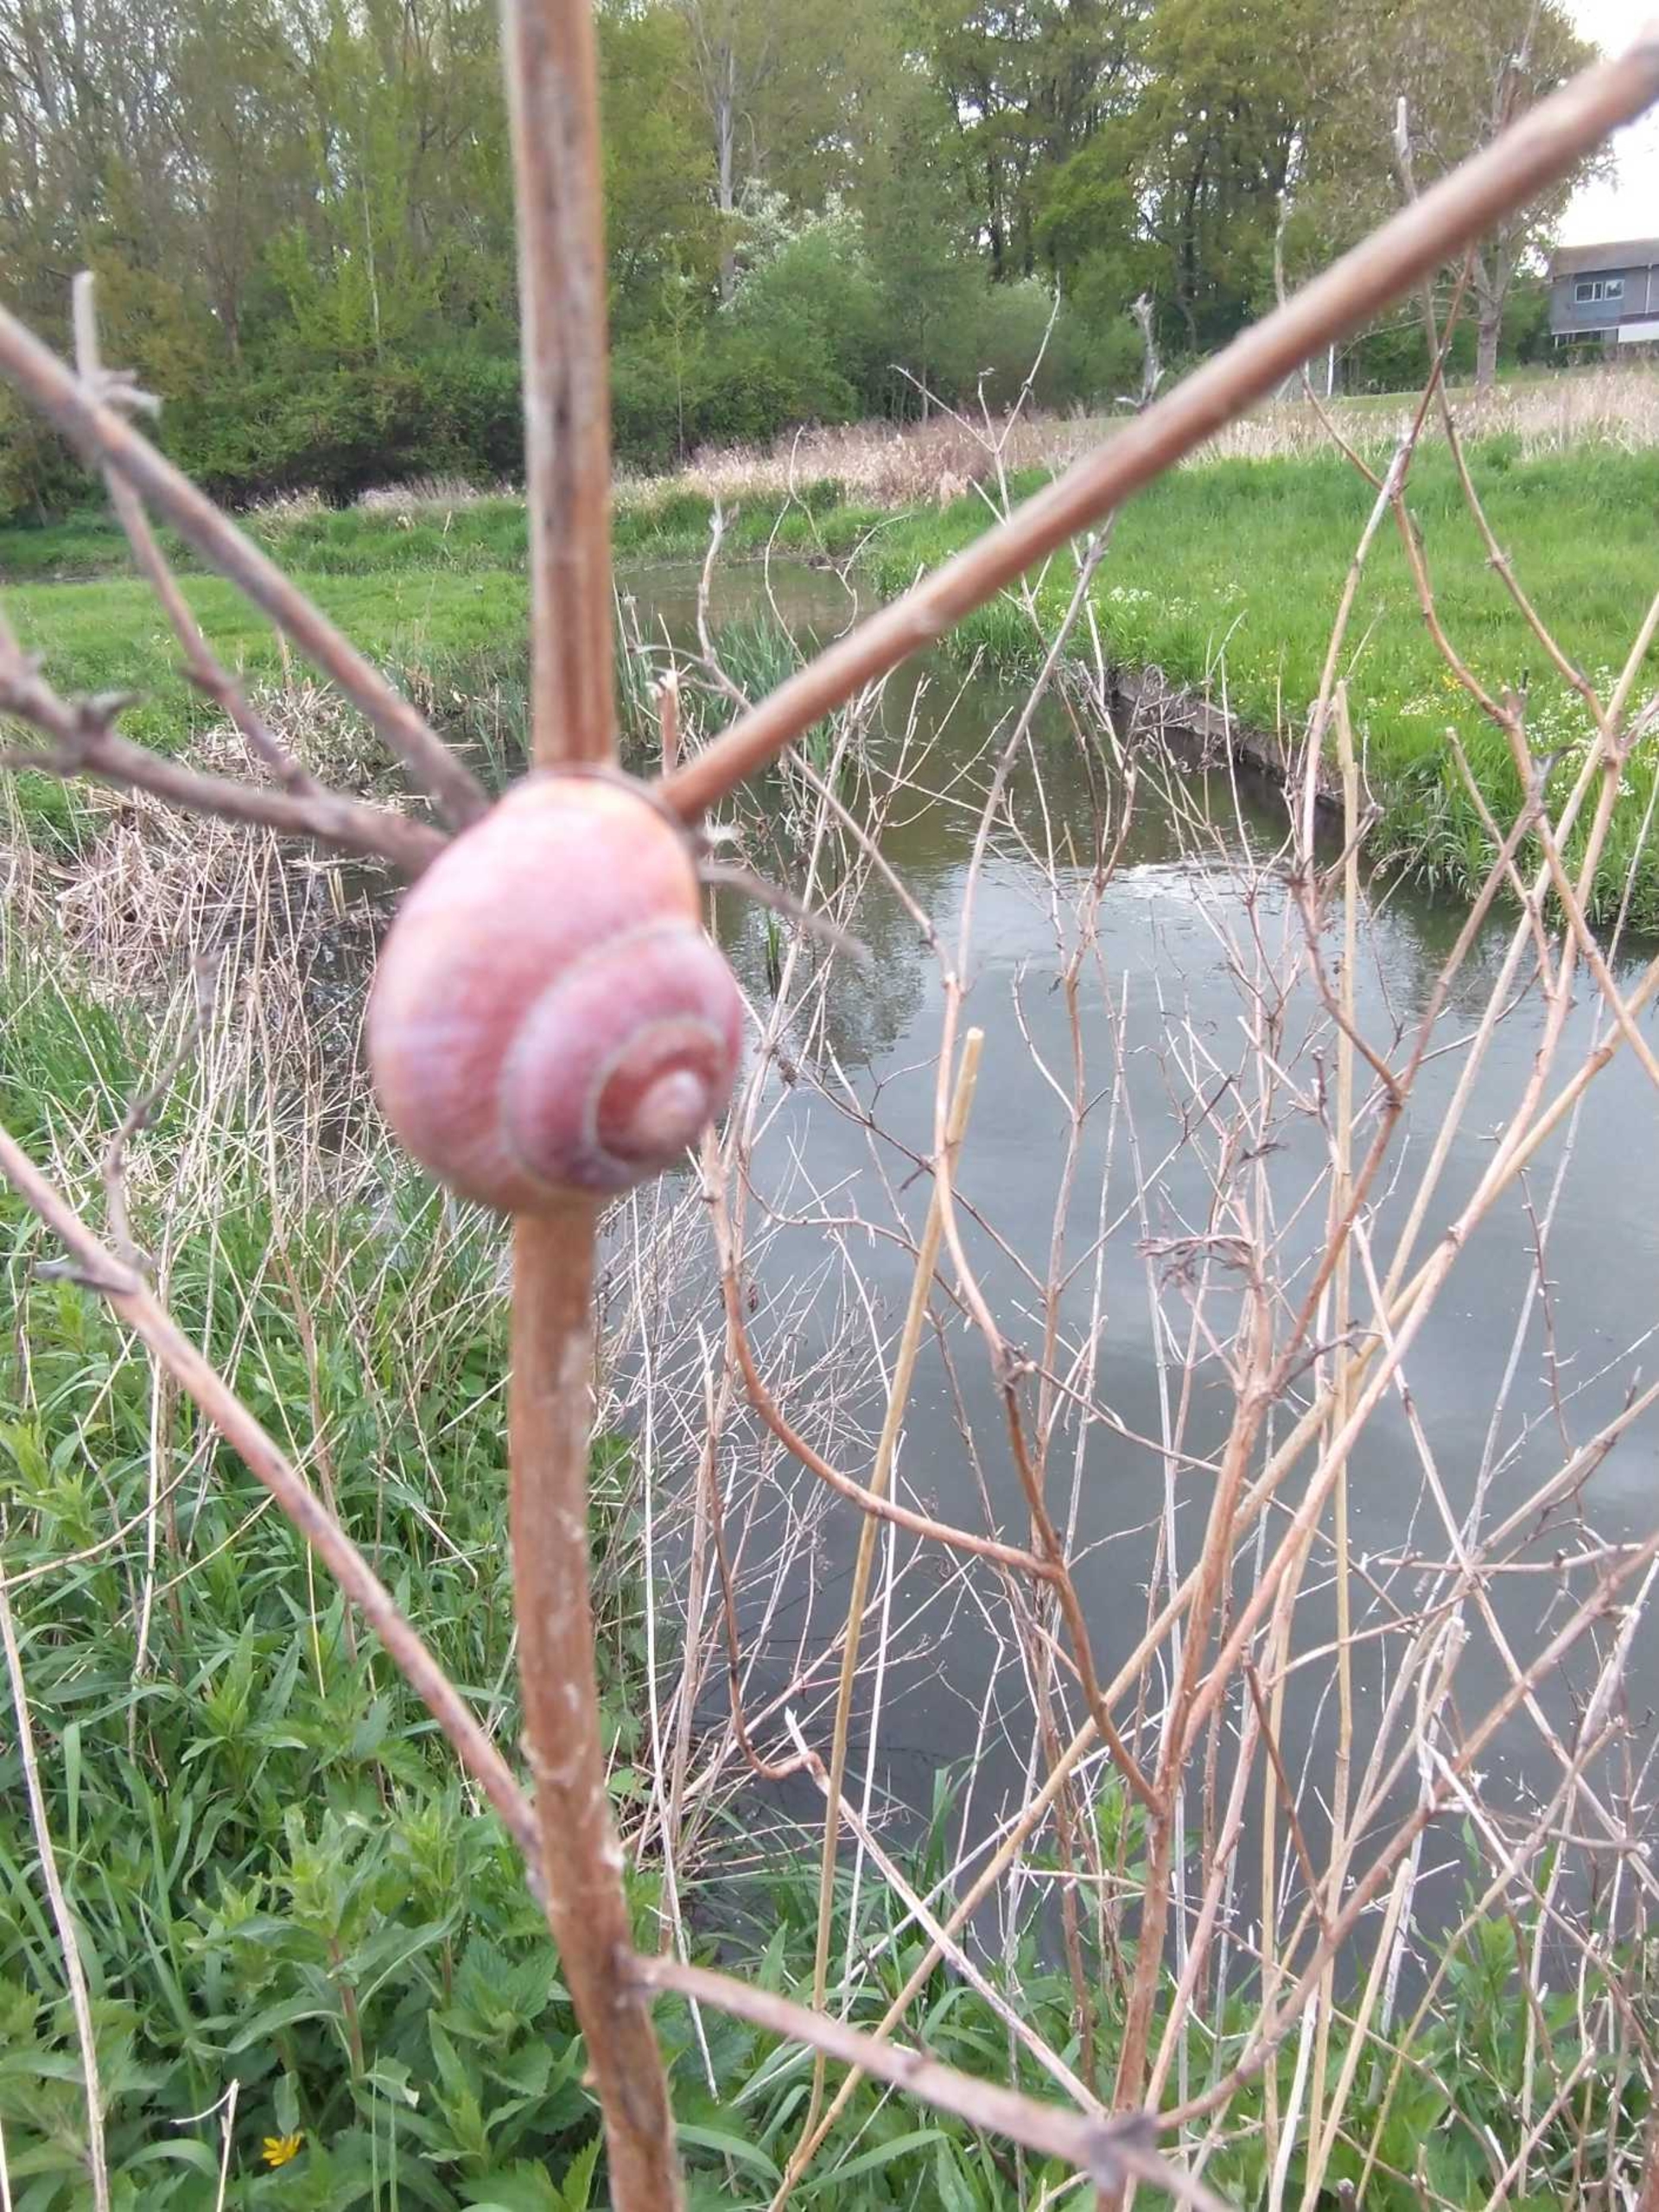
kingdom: Animalia
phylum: Mollusca
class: Gastropoda
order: Stylommatophora
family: Helicidae
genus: Cepaea
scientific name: Cepaea nemoralis
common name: Lundsnegl
